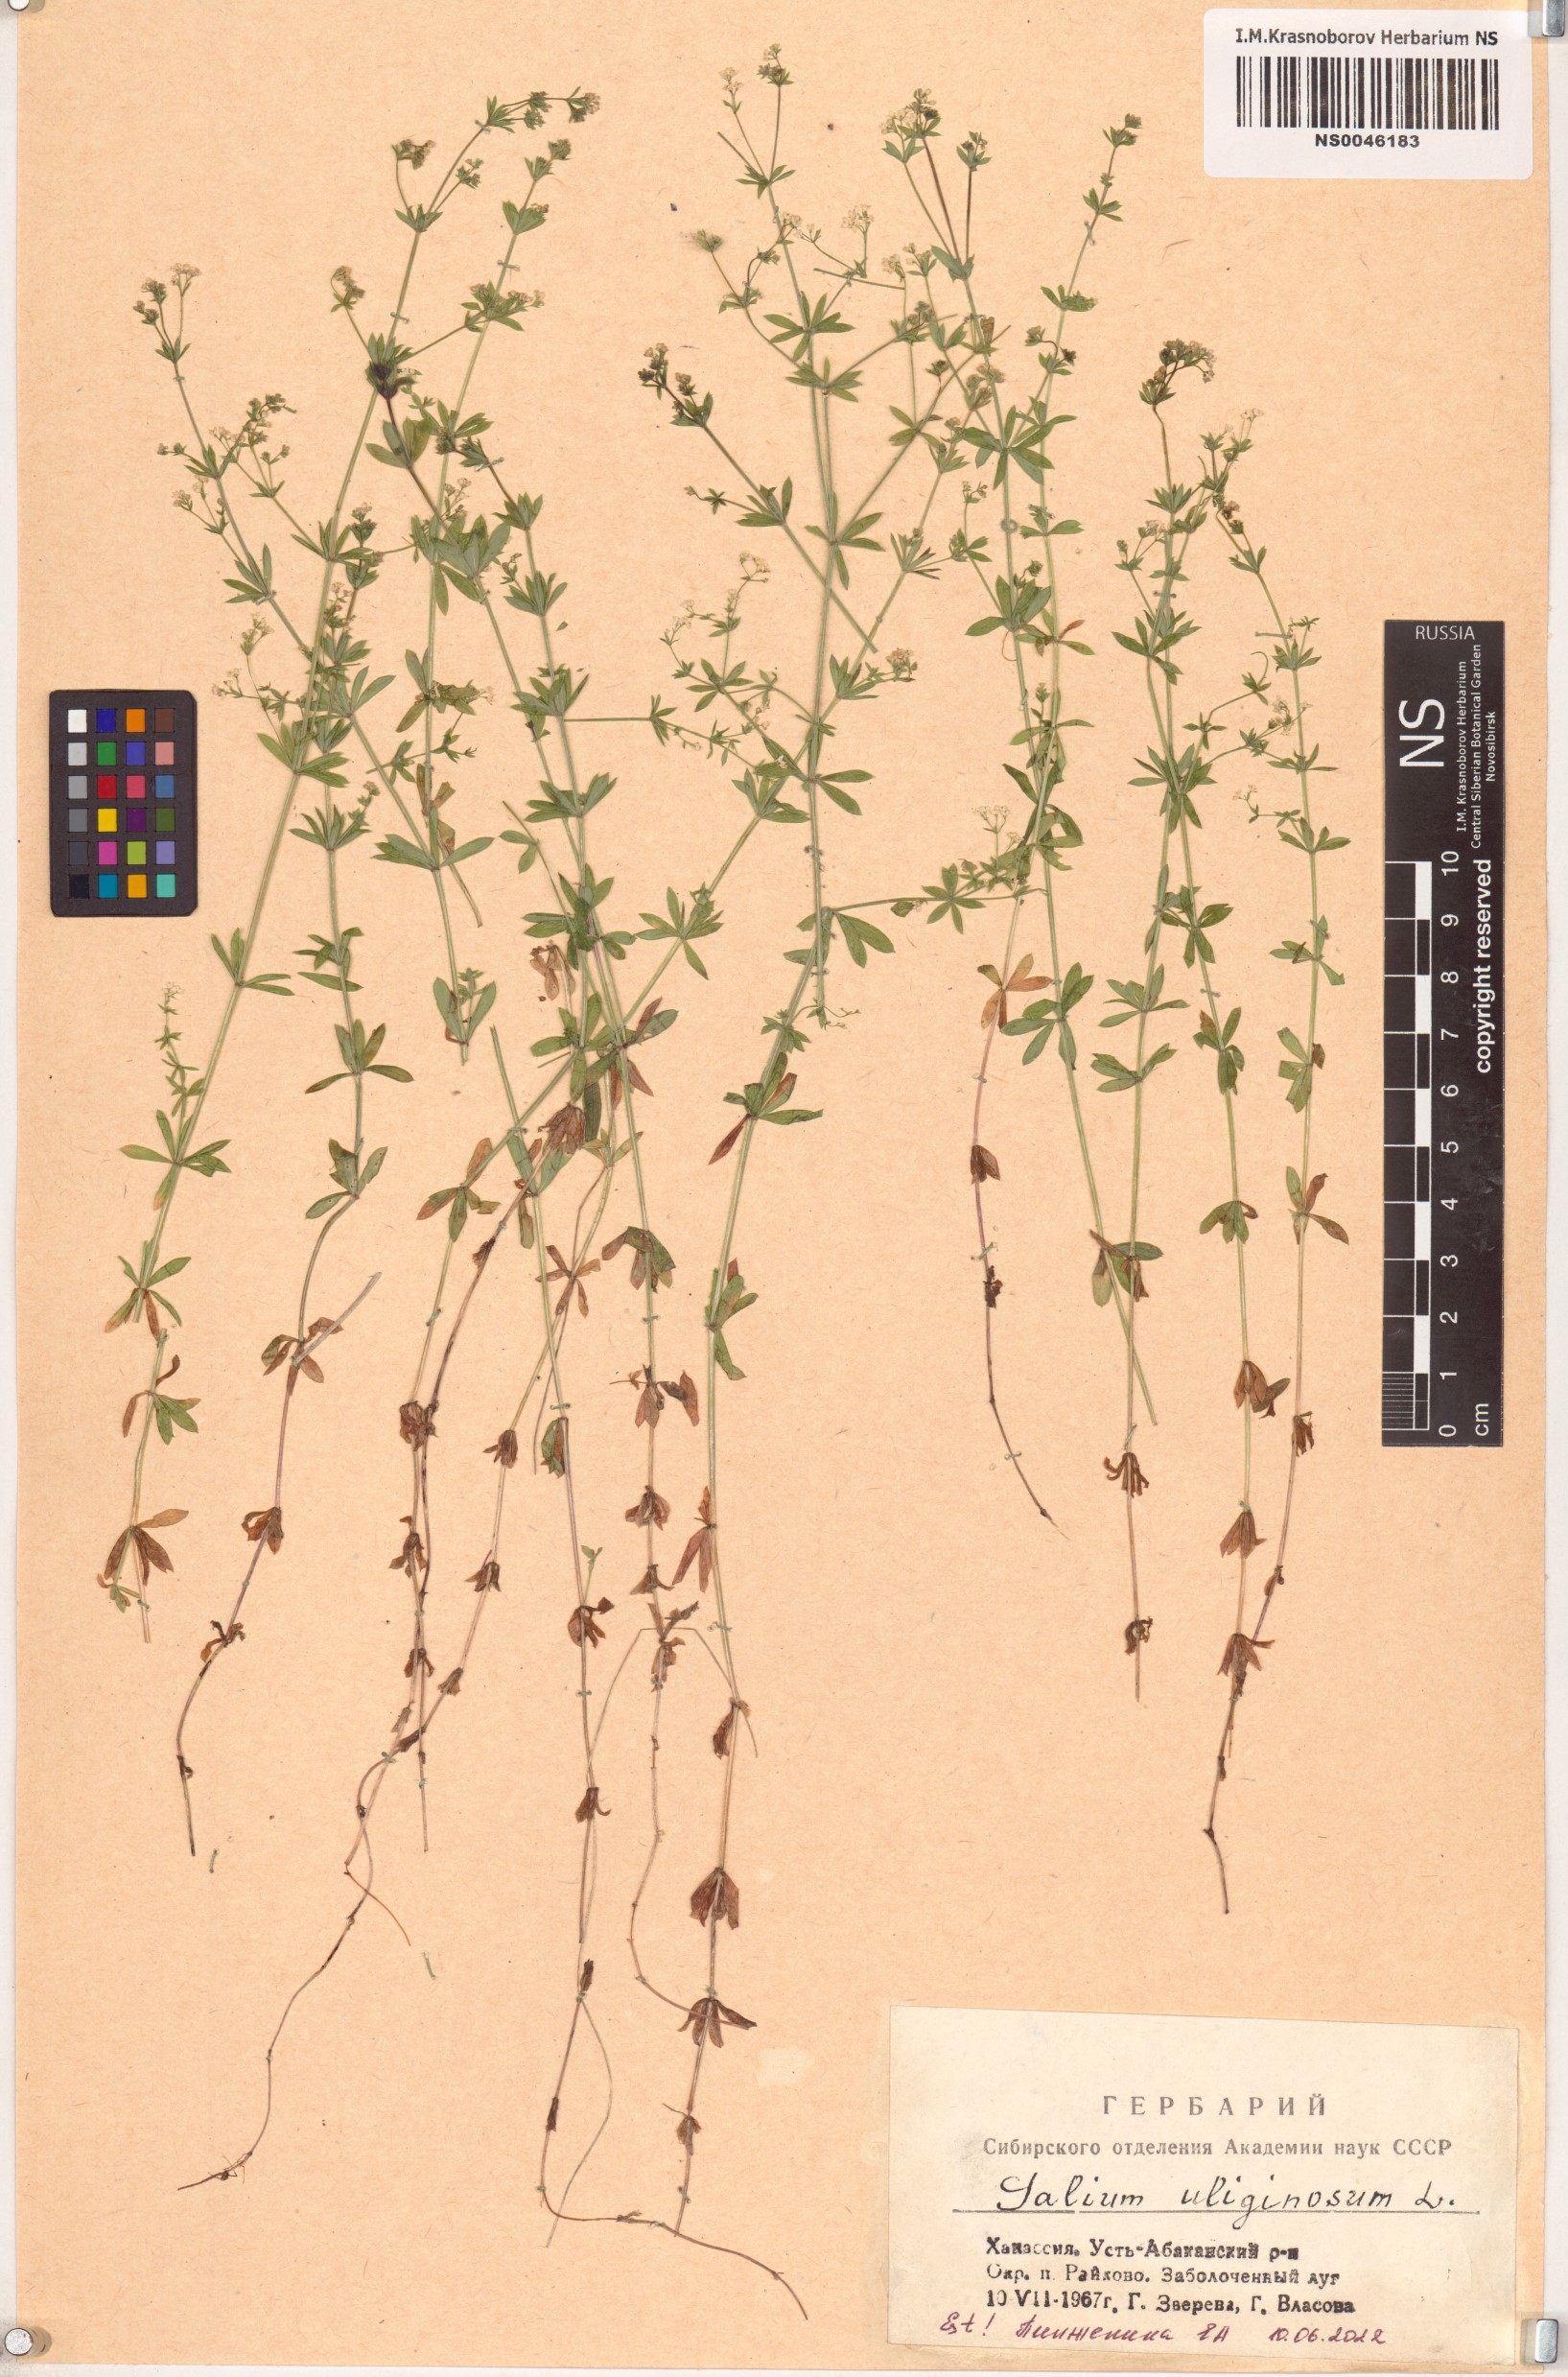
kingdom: Plantae
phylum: Tracheophyta
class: Magnoliopsida
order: Gentianales
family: Rubiaceae
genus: Galium
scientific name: Galium uliginosum
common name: Fen bedstraw
